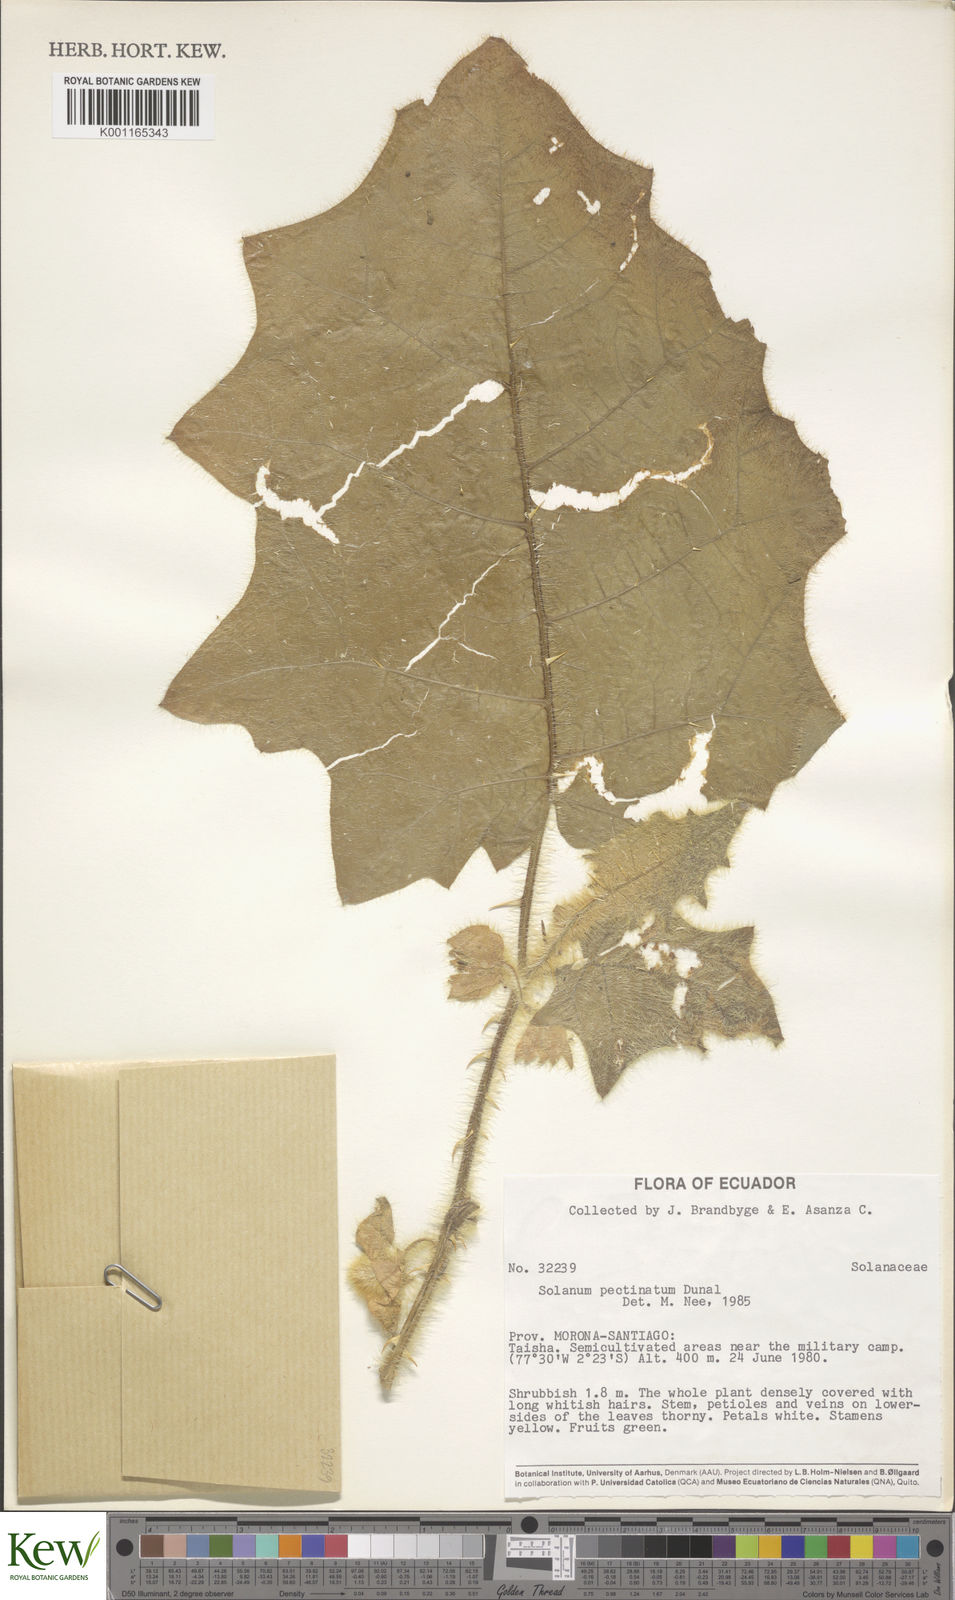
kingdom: Plantae
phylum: Tracheophyta
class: Magnoliopsida
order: Solanales
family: Solanaceae
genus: Solanum
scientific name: Solanum pectinatum
